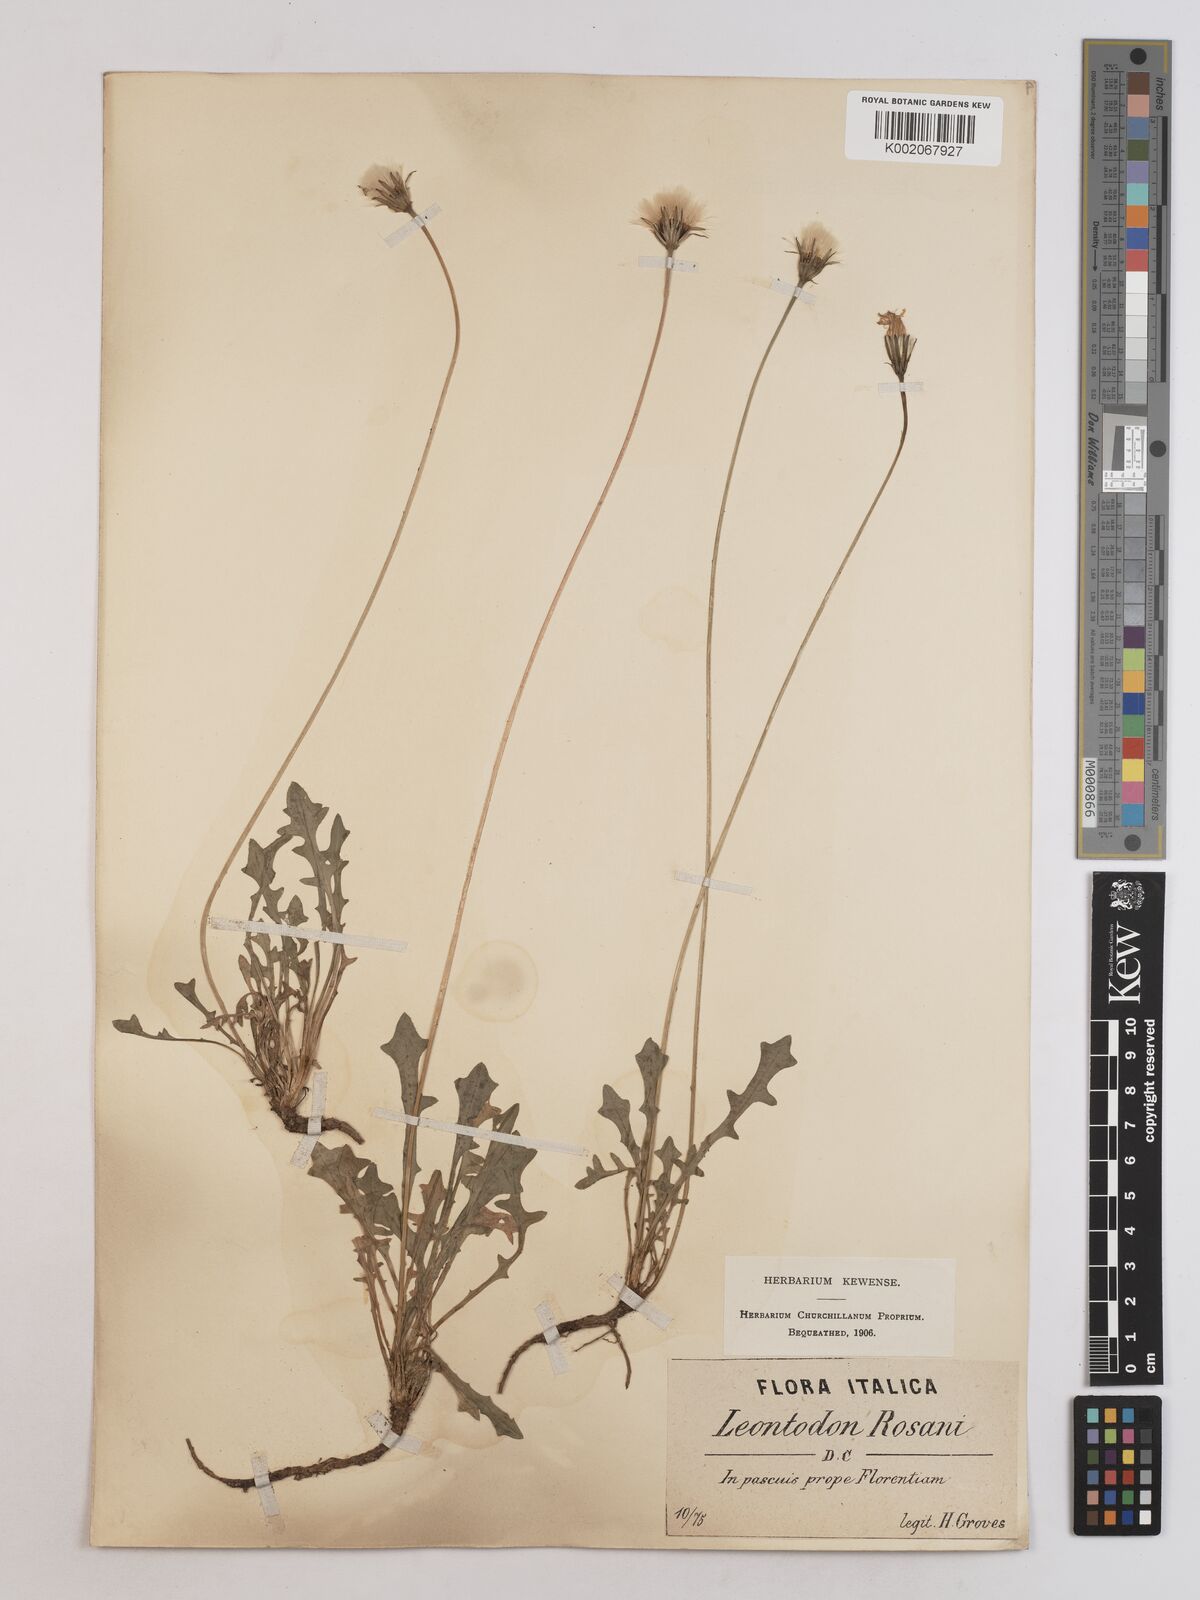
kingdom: Plantae
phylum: Tracheophyta
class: Magnoliopsida
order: Asterales
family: Asteraceae
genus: Leontodon
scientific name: Leontodon rosanoi
